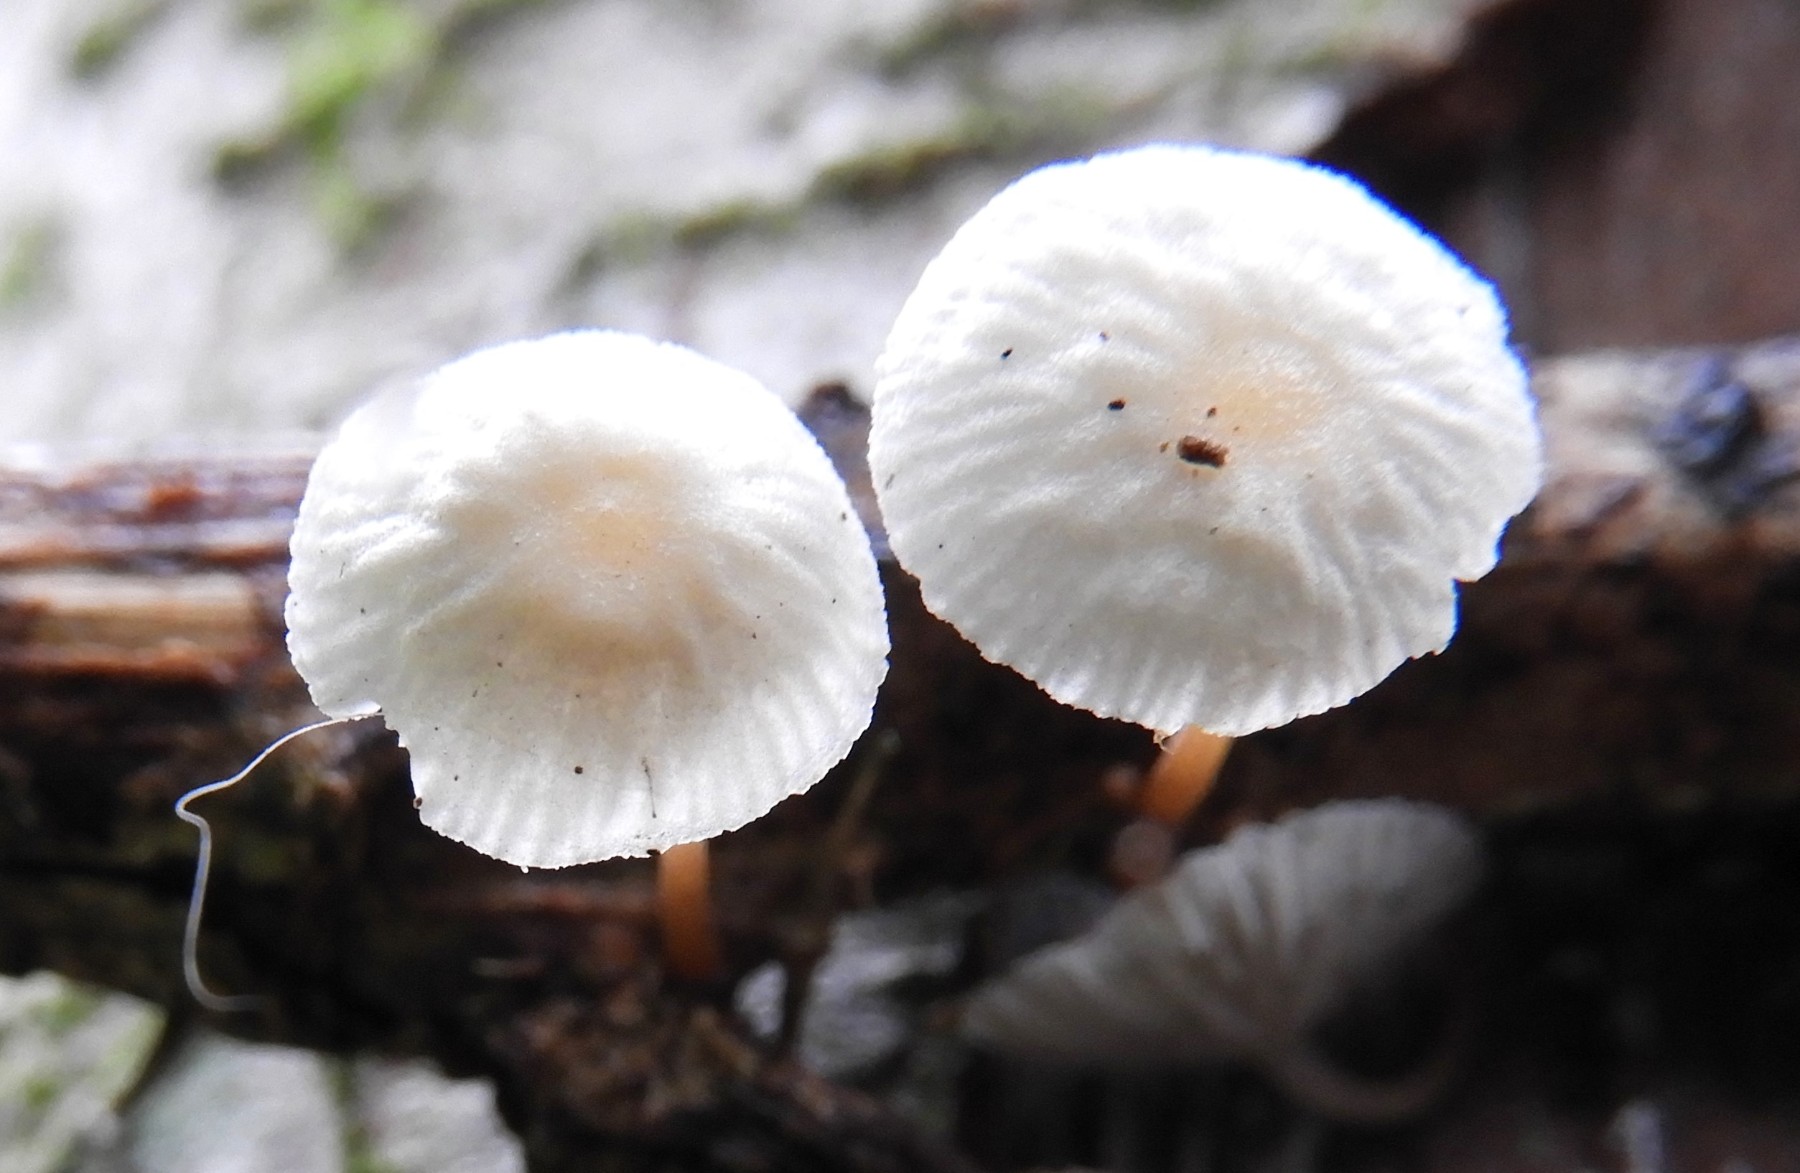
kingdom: Fungi
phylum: Basidiomycota
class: Agaricomycetes
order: Agaricales
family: Omphalotaceae
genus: Collybiopsis
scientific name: Collybiopsis vaillantii
